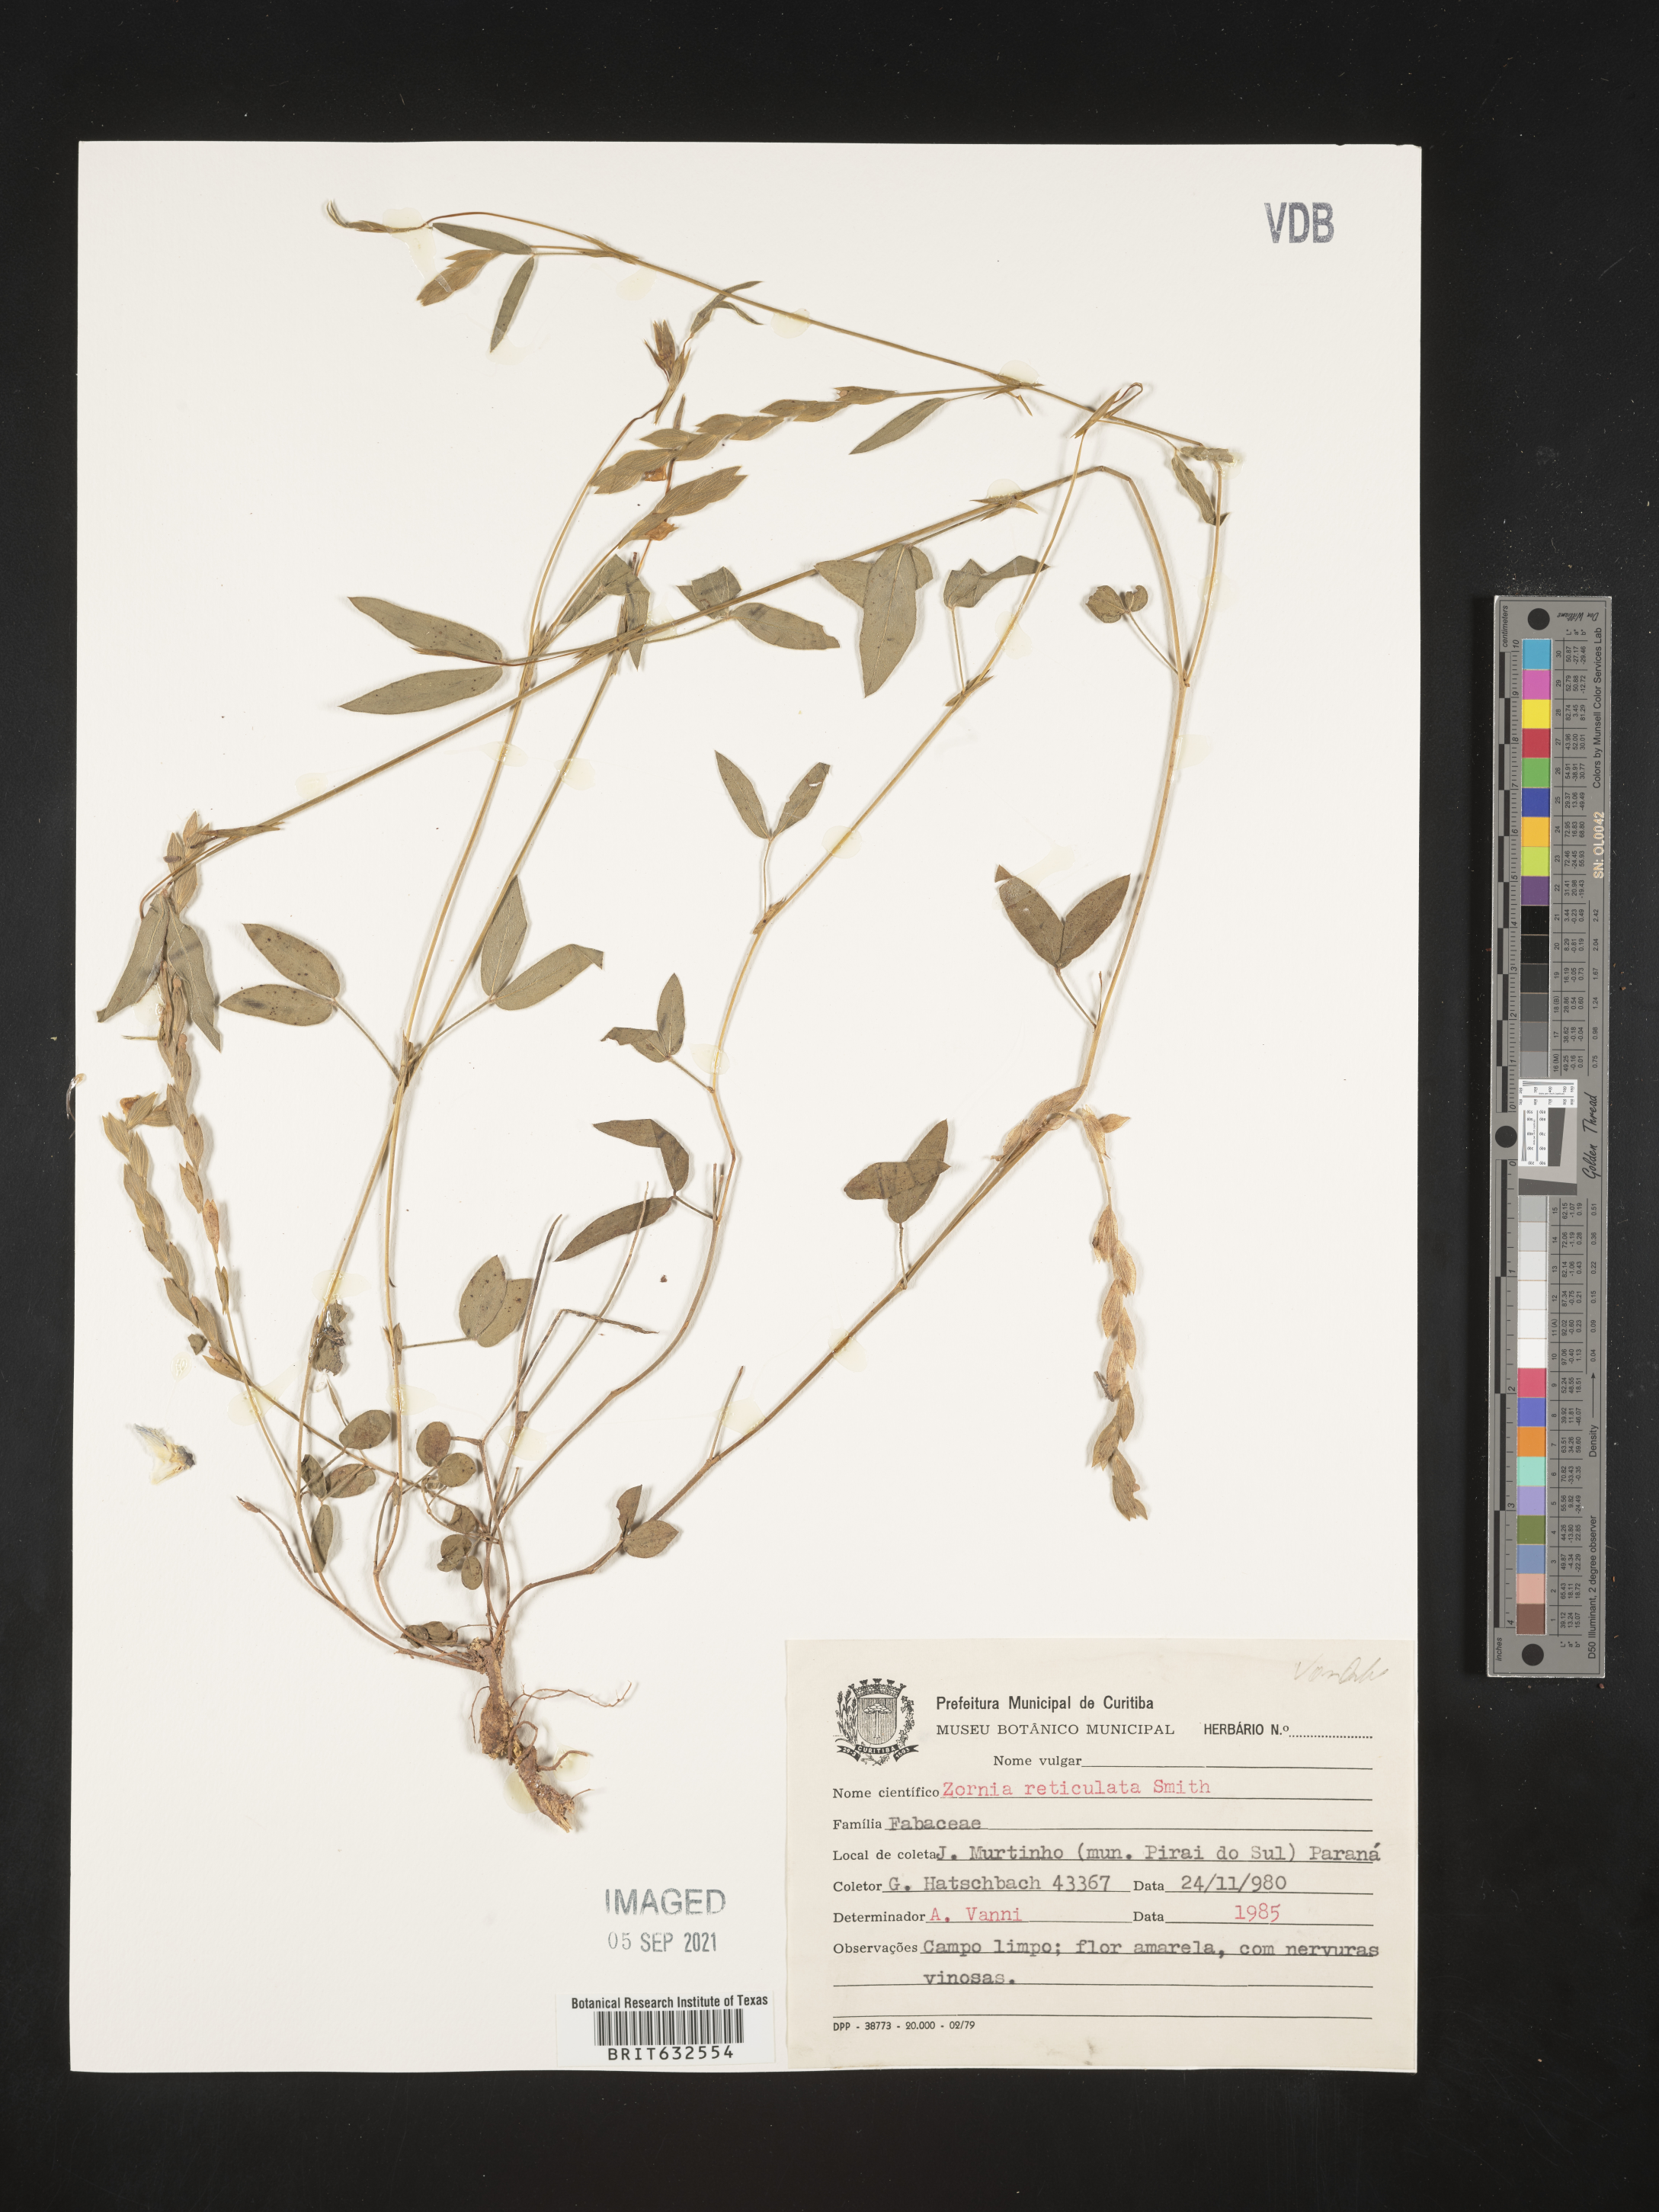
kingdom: Plantae
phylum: Tracheophyta
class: Magnoliopsida
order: Fabales
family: Fabaceae
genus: Zornia
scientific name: Zornia
